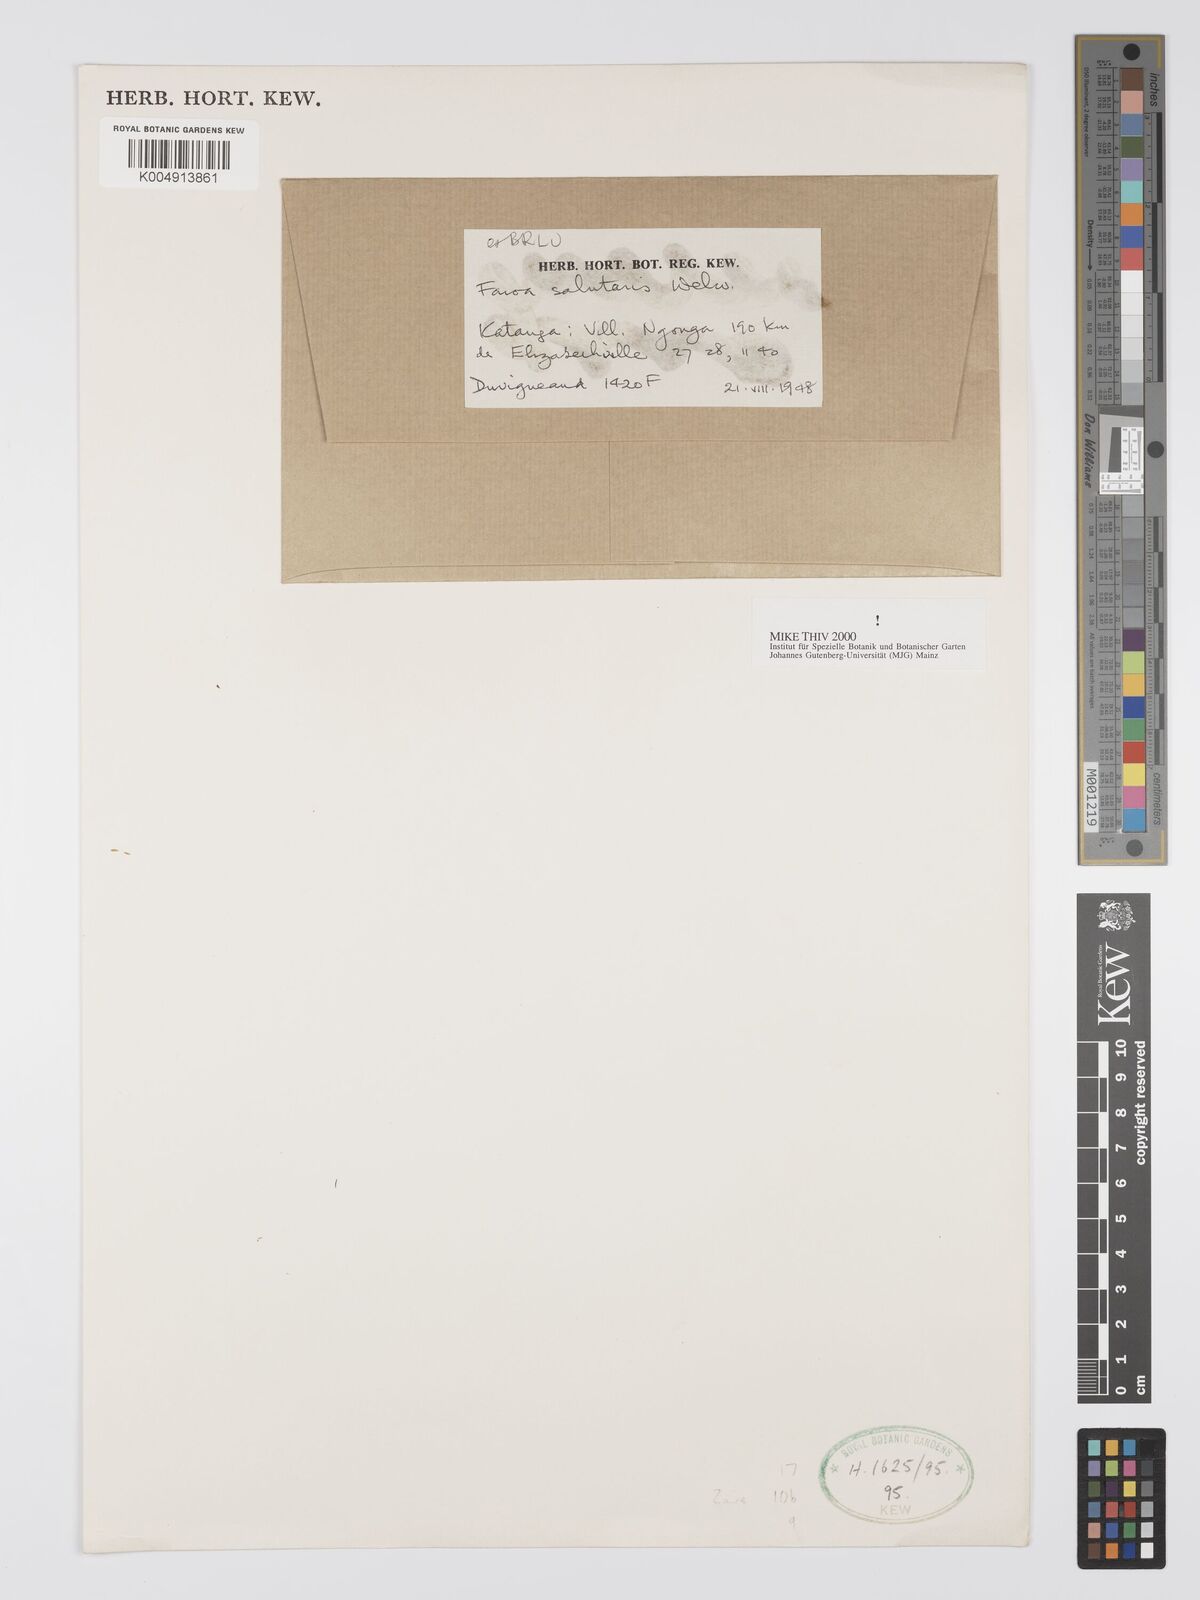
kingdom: Plantae
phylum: Tracheophyta
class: Magnoliopsida
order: Gentianales
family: Gentianaceae
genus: Faroa
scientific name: Faroa salutaris
